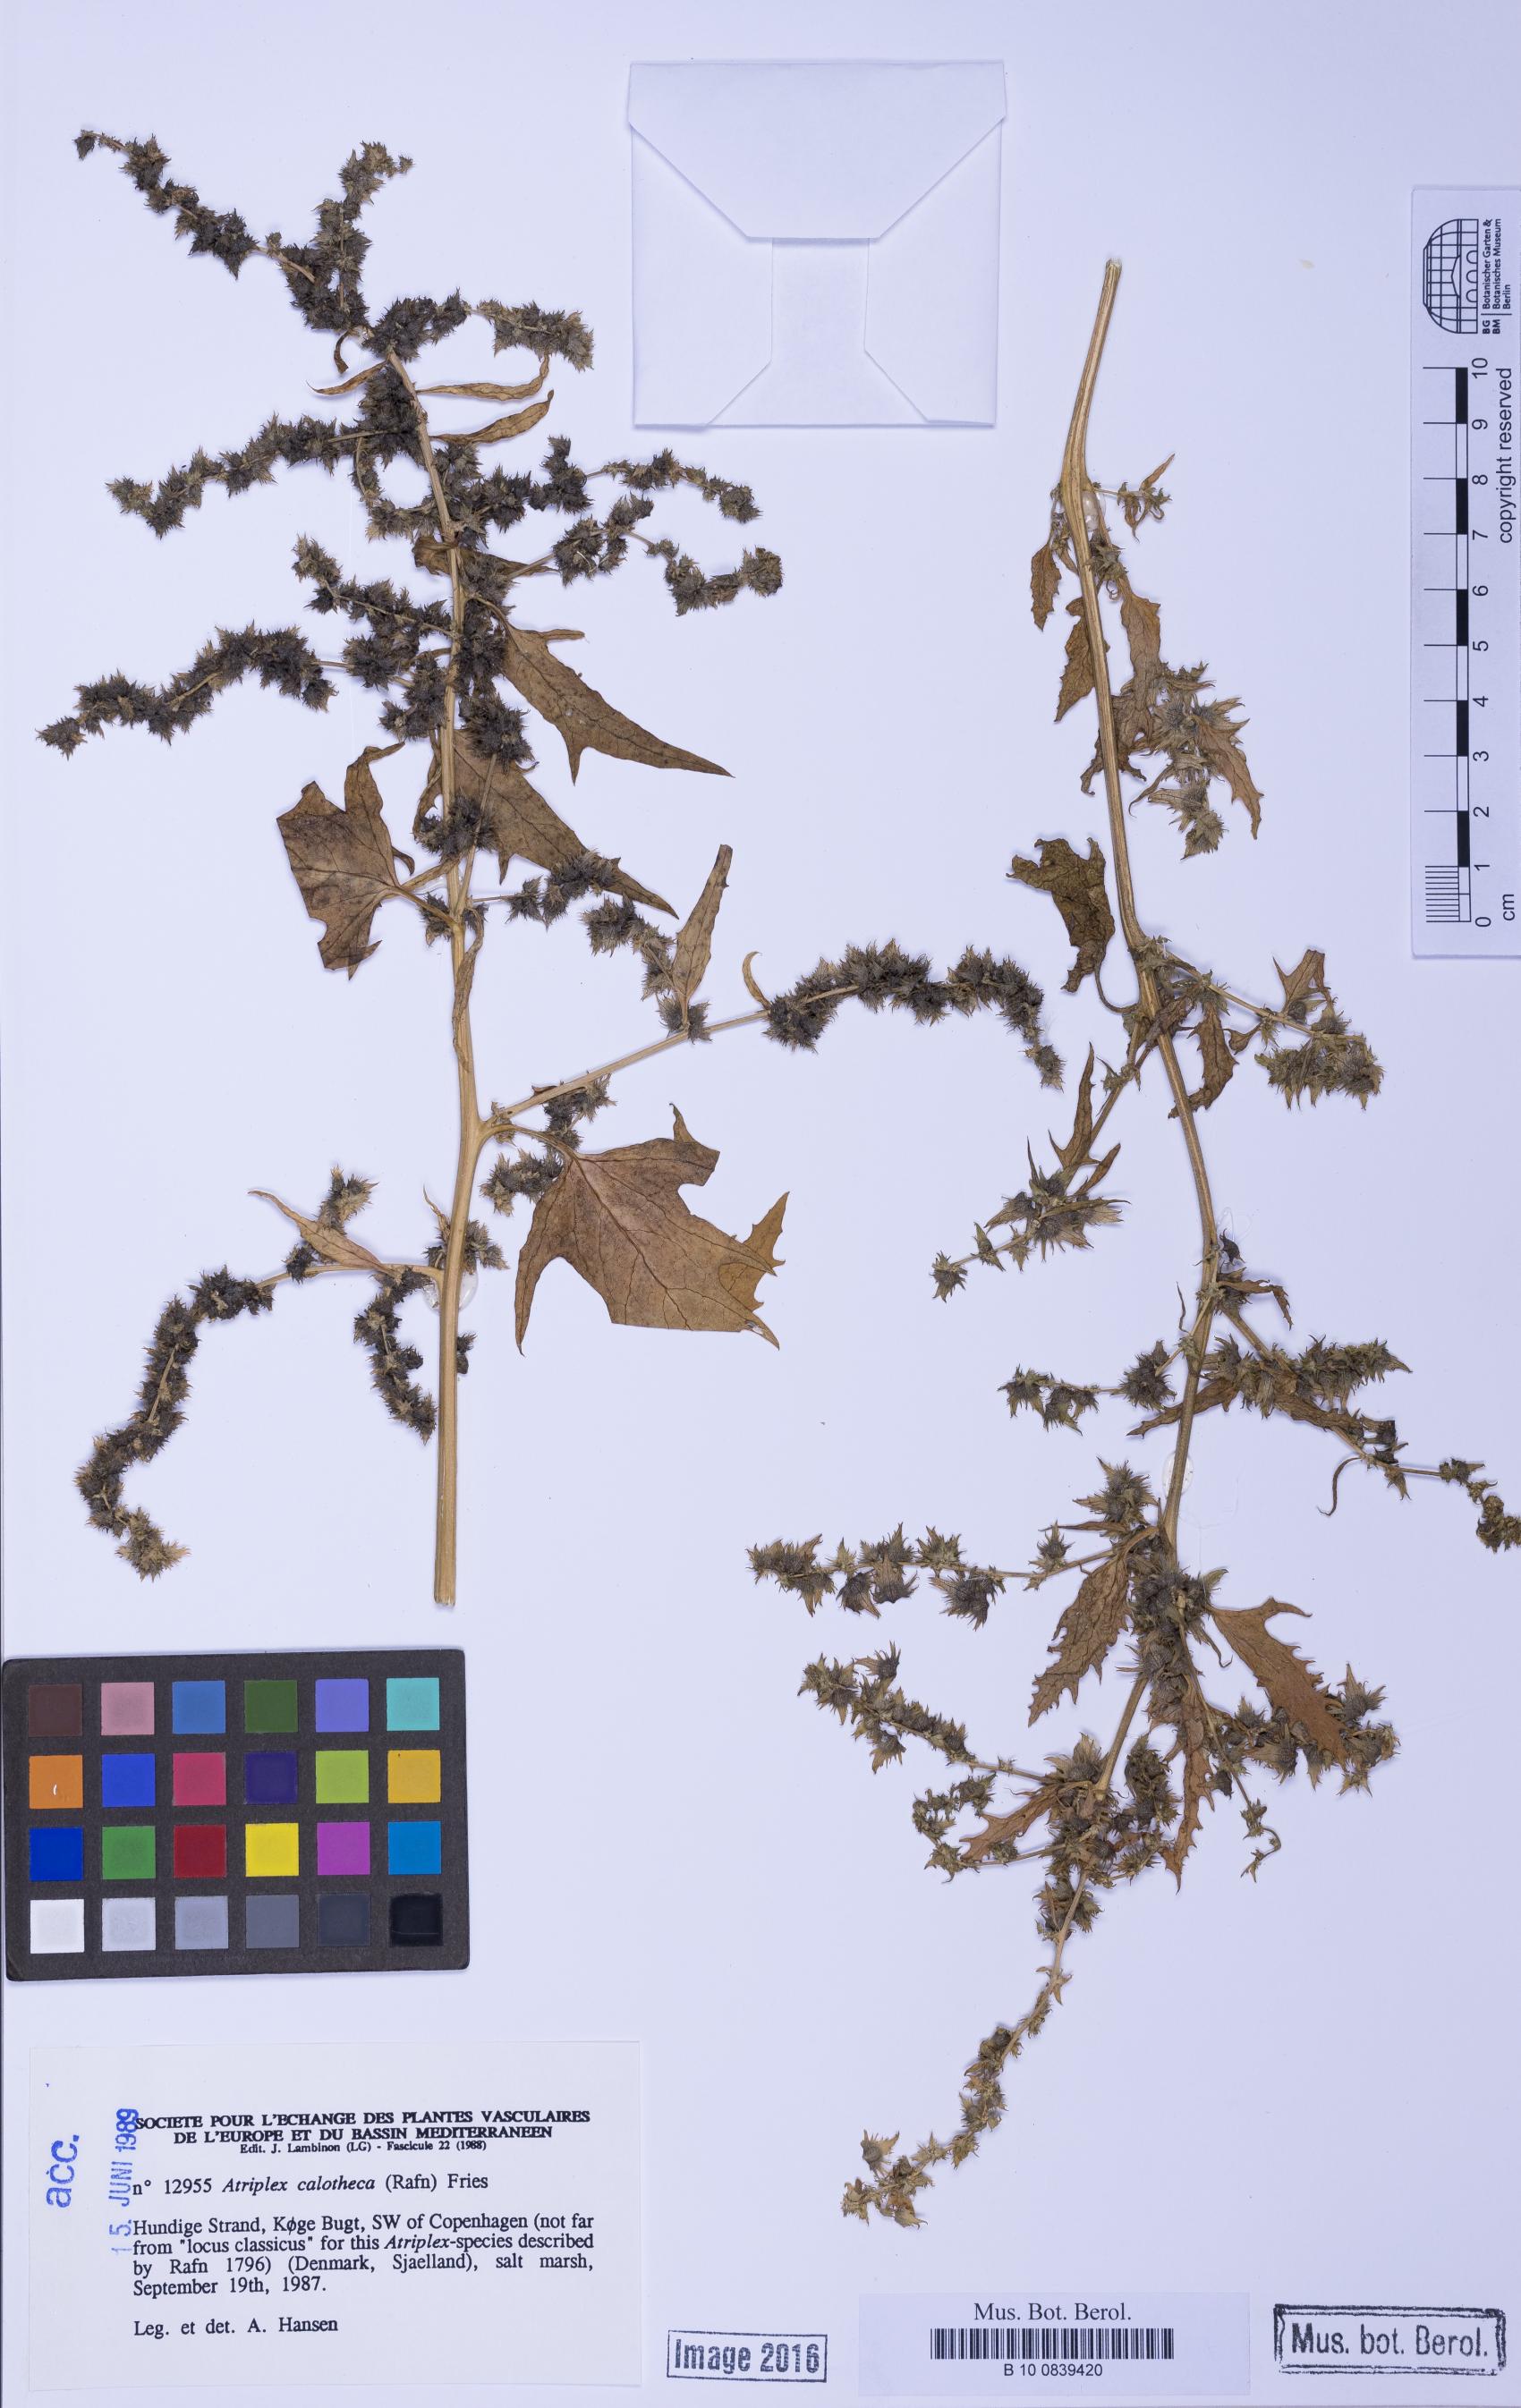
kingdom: Plantae
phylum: Tracheophyta
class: Magnoliopsida
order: Caryophyllales
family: Amaranthaceae
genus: Atriplex
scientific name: Atriplex calotheca
